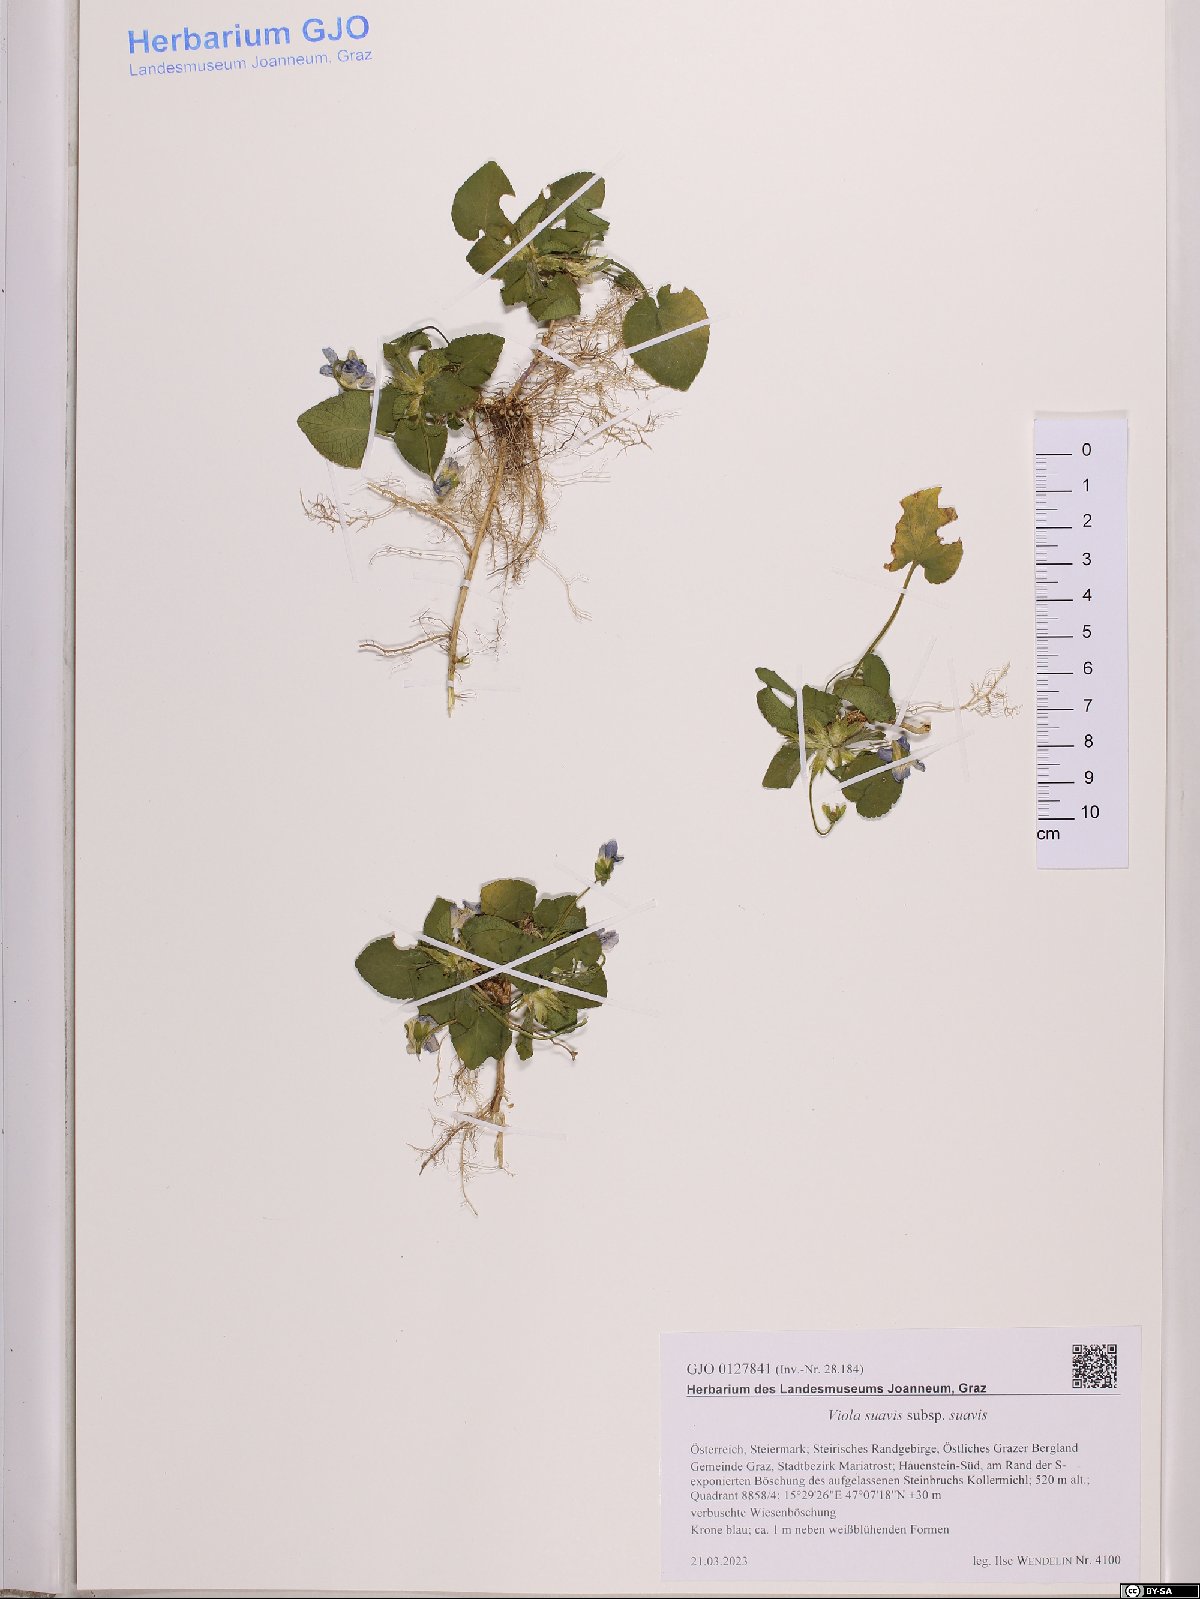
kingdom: Plantae
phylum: Tracheophyta
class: Magnoliopsida
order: Malpighiales
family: Violaceae
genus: Viola
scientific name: Viola suavis
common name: Russian violet
